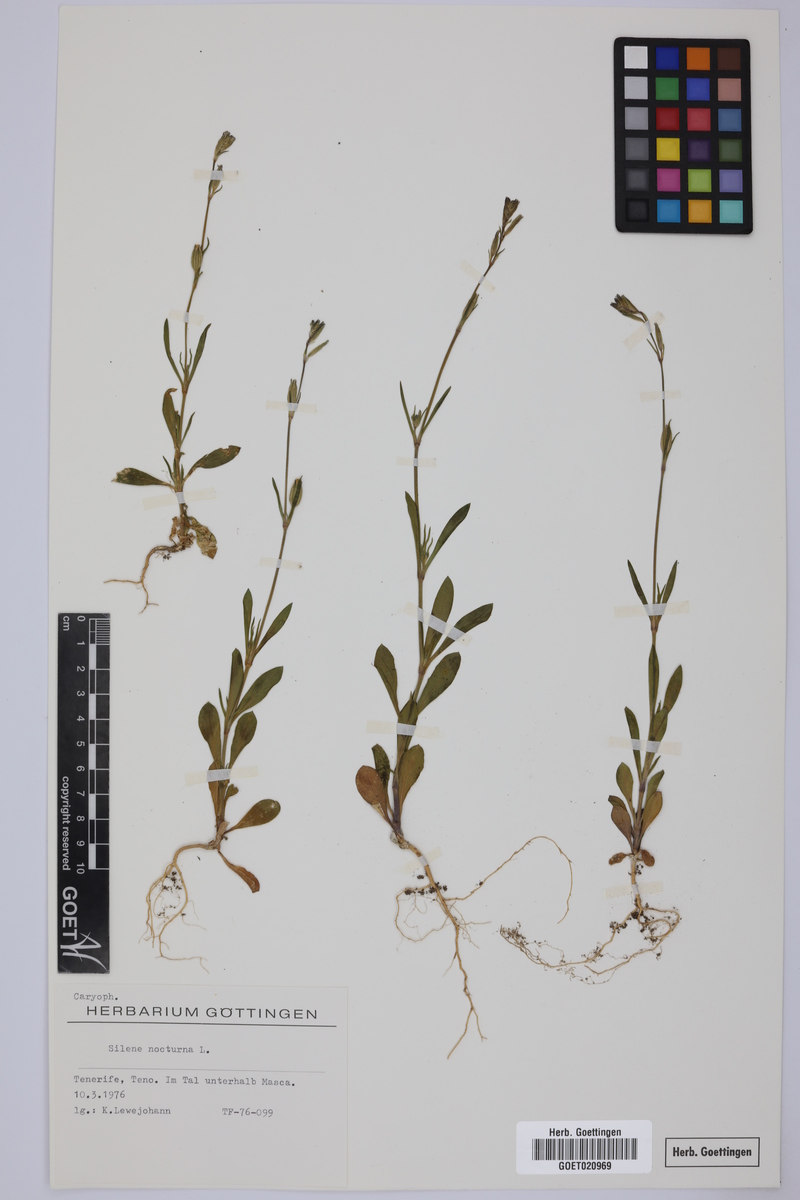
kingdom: Plantae
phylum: Tracheophyta
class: Magnoliopsida
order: Caryophyllales
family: Caryophyllaceae
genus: Silene
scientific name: Silene nocturna
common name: Mediterranean catchfly
